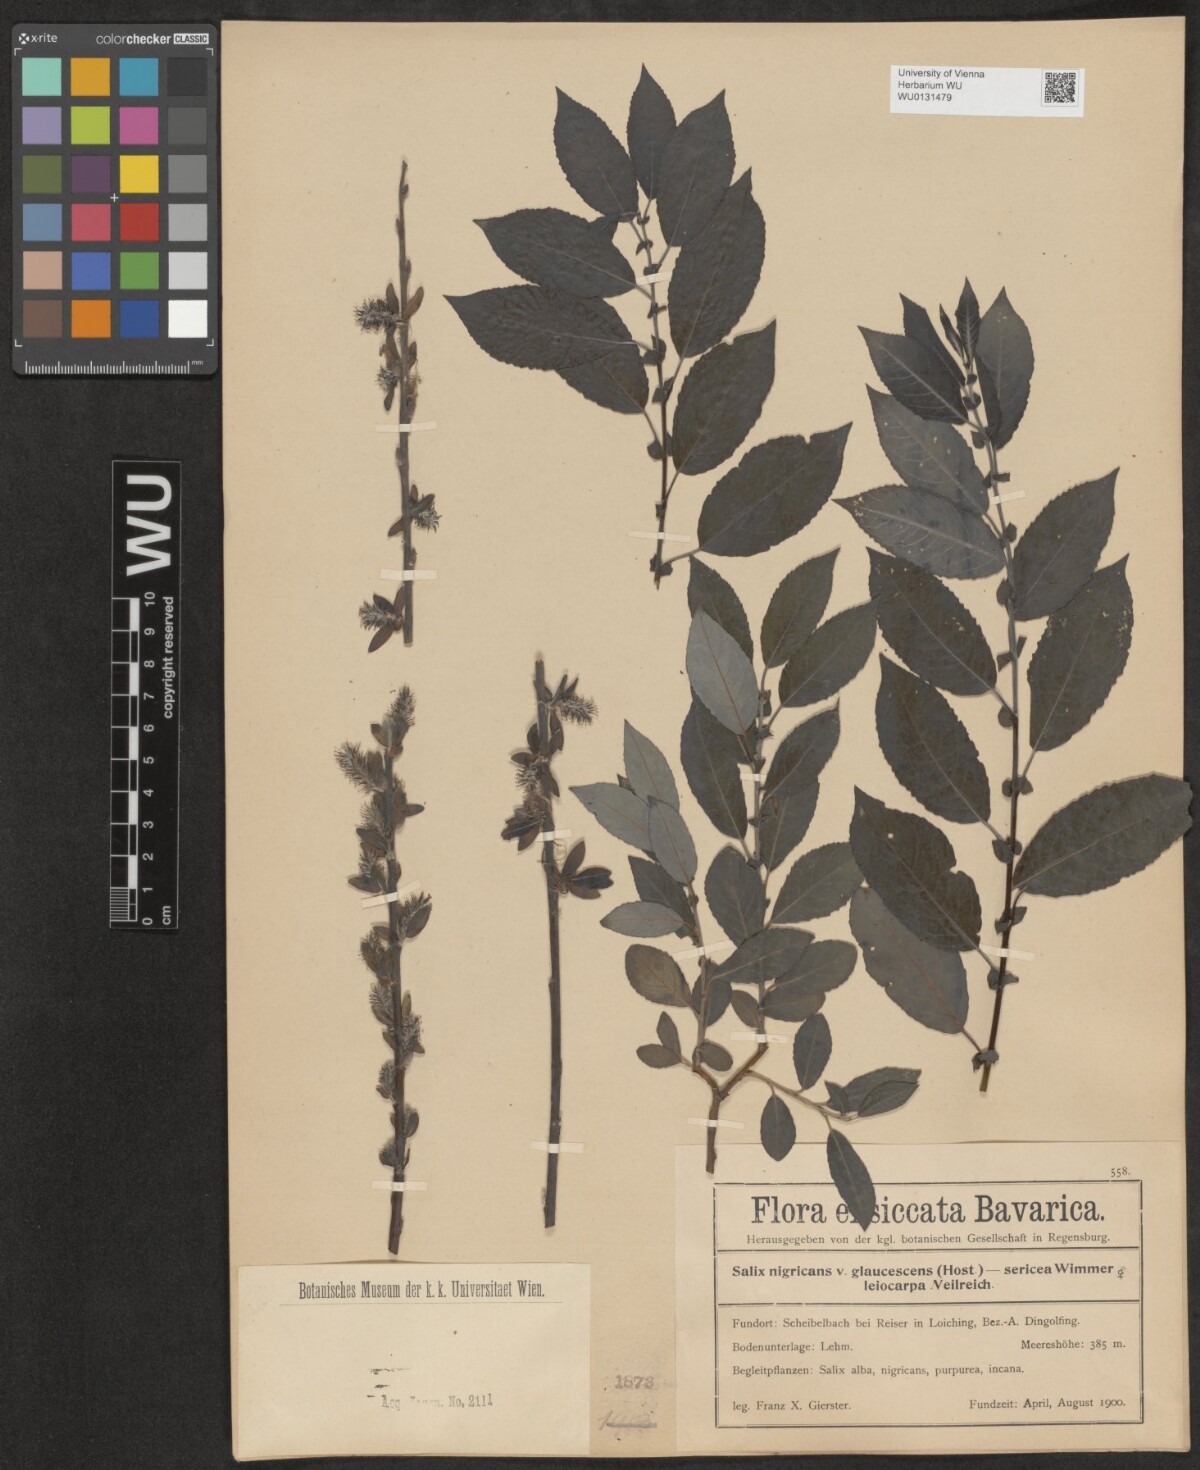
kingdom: Plantae
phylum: Tracheophyta
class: Magnoliopsida
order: Malpighiales
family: Salicaceae
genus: Salix
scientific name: Salix myrsinifolia
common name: Dark-leaved willow
